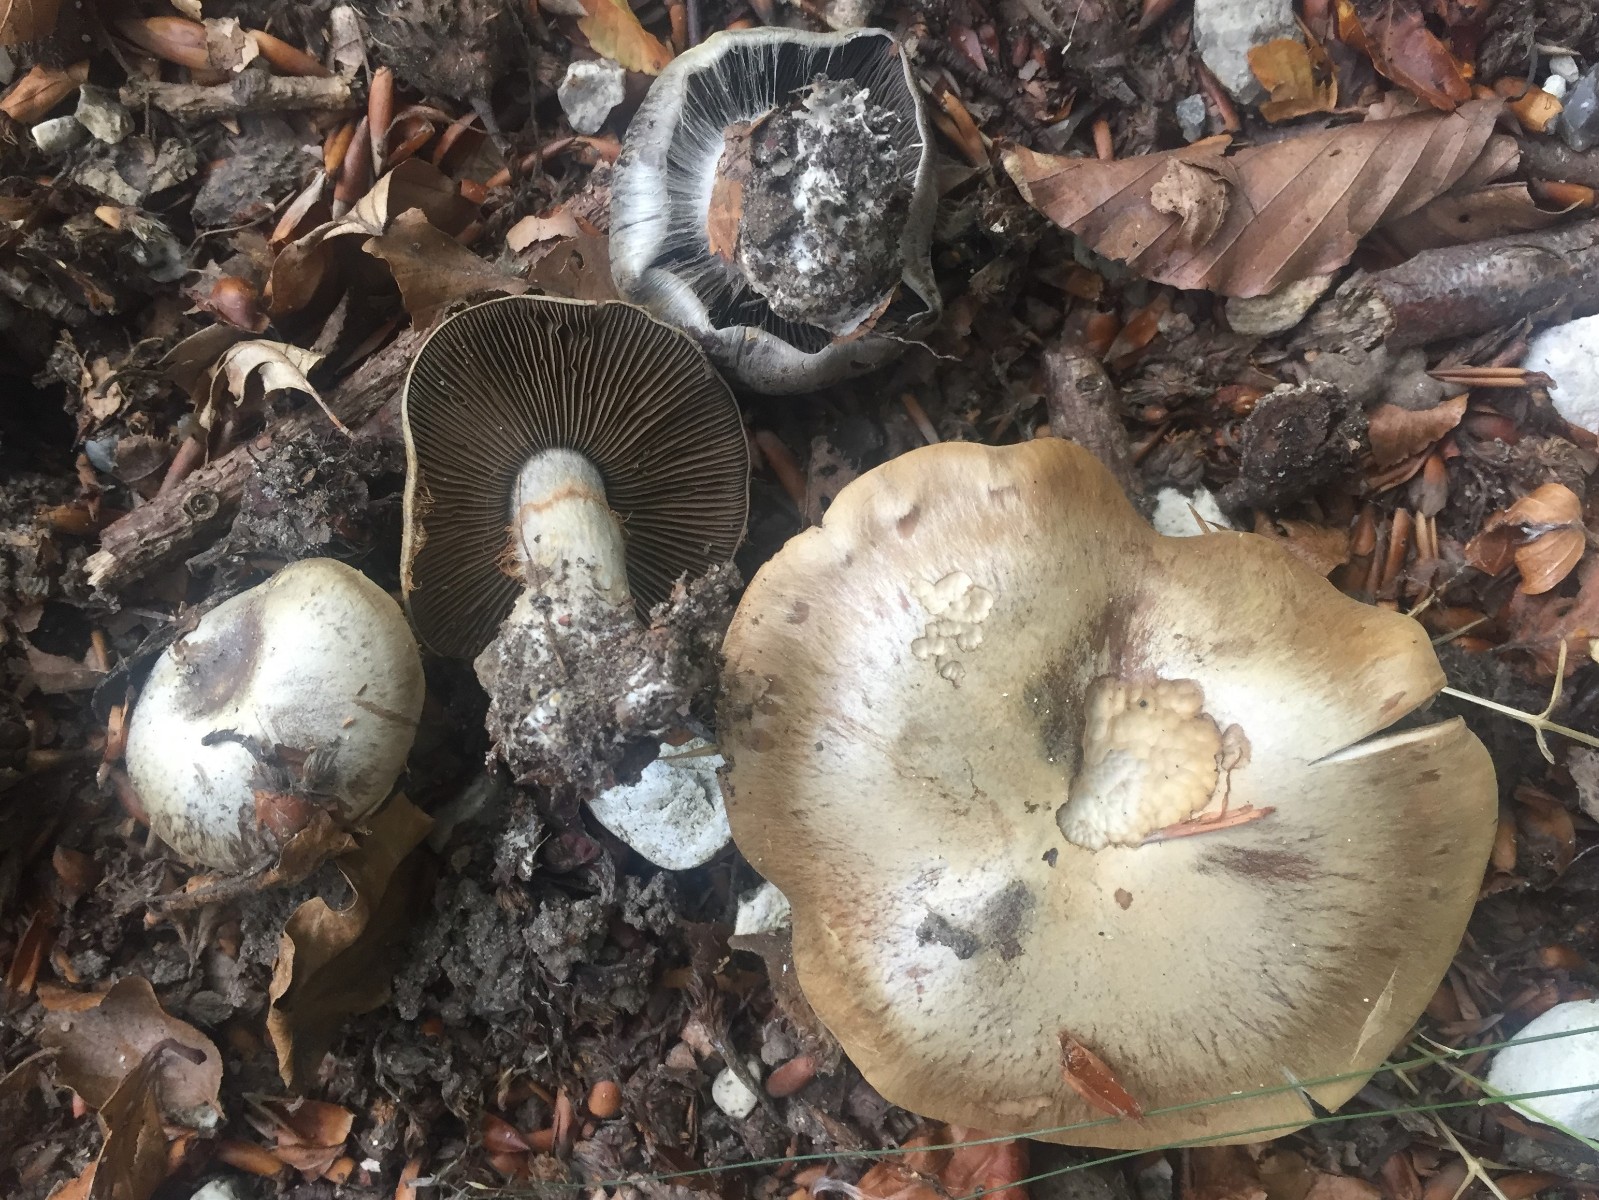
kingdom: Fungi
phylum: Basidiomycota
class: Agaricomycetes
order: Agaricales
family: Cortinariaceae
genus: Cortinarius
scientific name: Cortinarius
